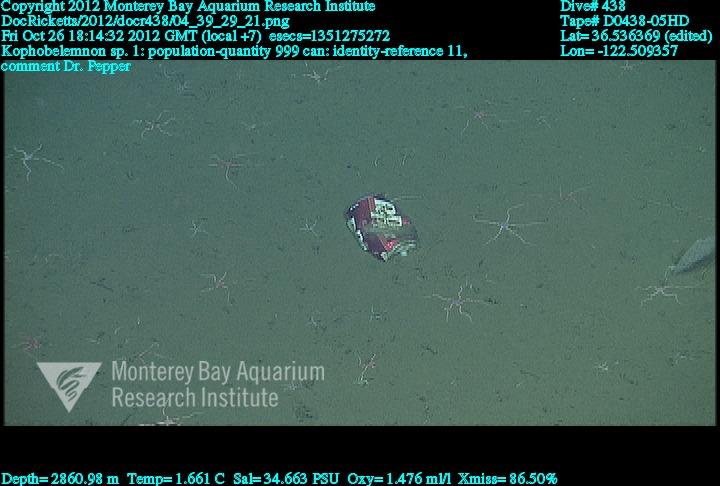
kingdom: Animalia
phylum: Cnidaria
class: Anthozoa
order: Scleralcyonacea
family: Kophobelemnidae
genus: Kophobelemnon
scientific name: Kophobelemnon
